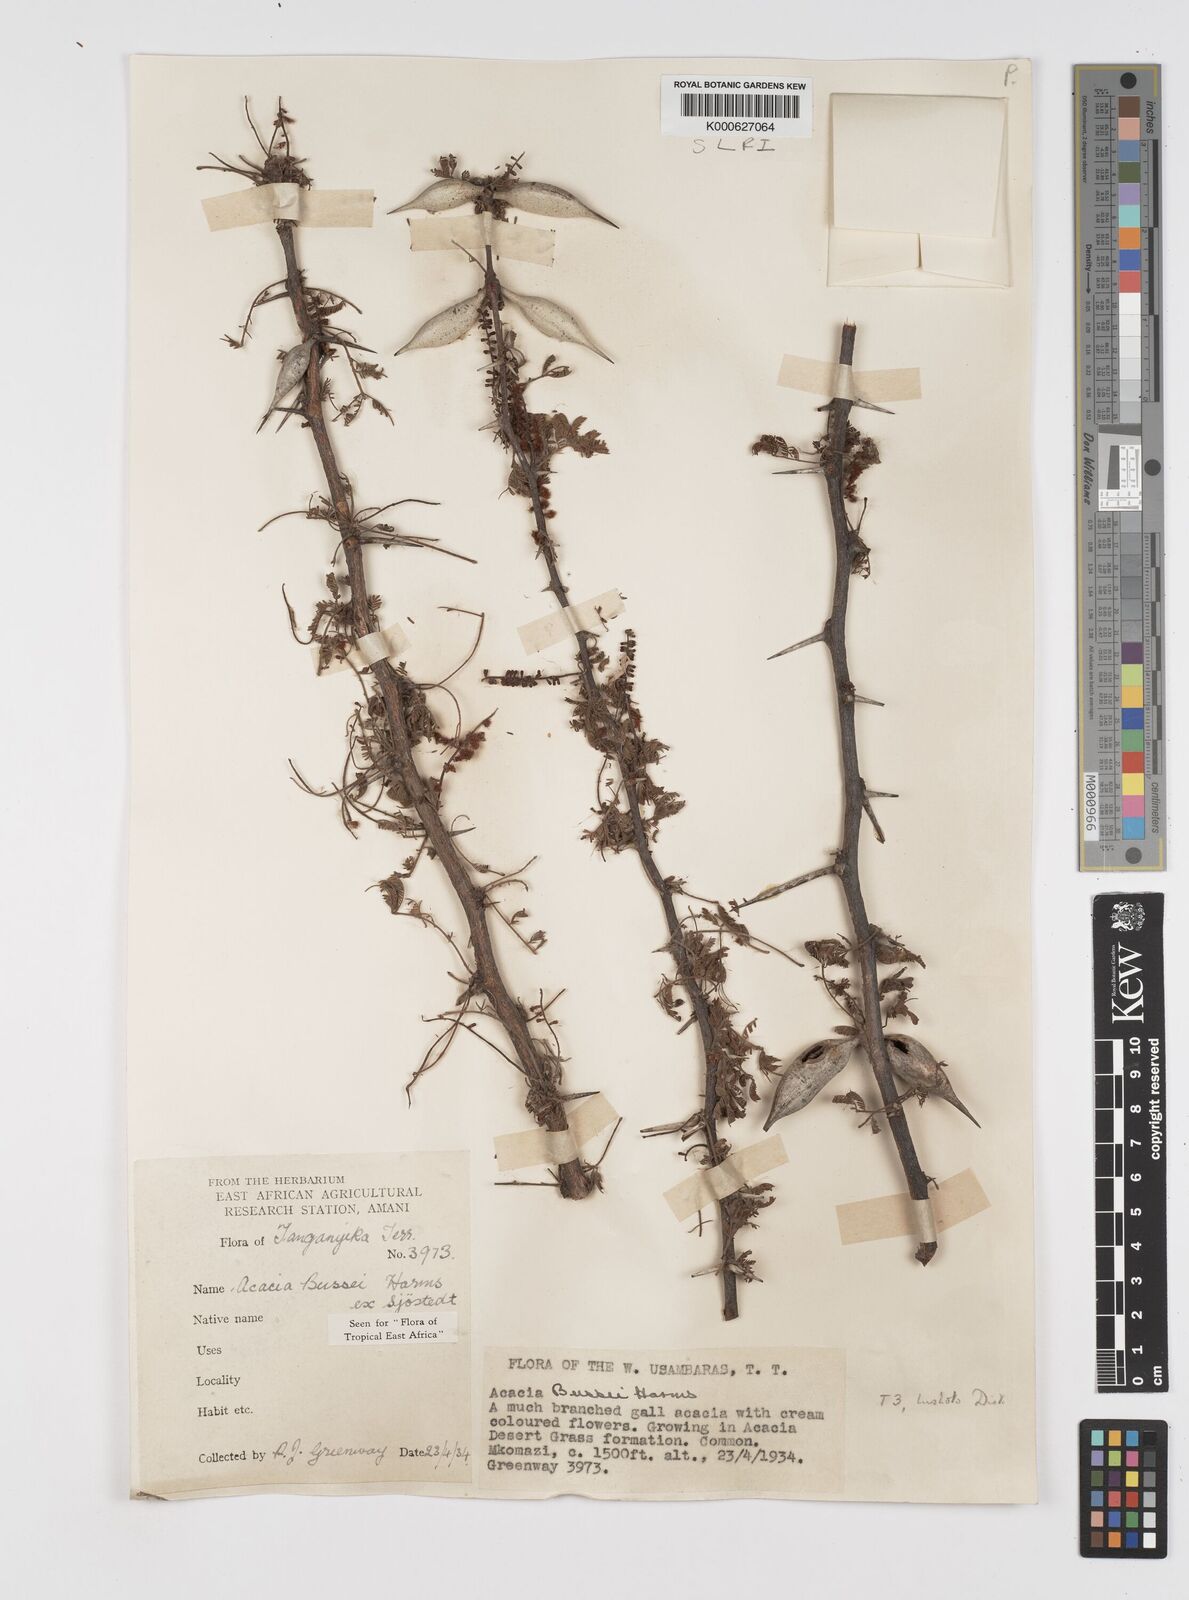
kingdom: Plantae
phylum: Tracheophyta
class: Magnoliopsida
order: Fabales
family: Fabaceae
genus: Vachellia
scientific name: Vachellia bussei
